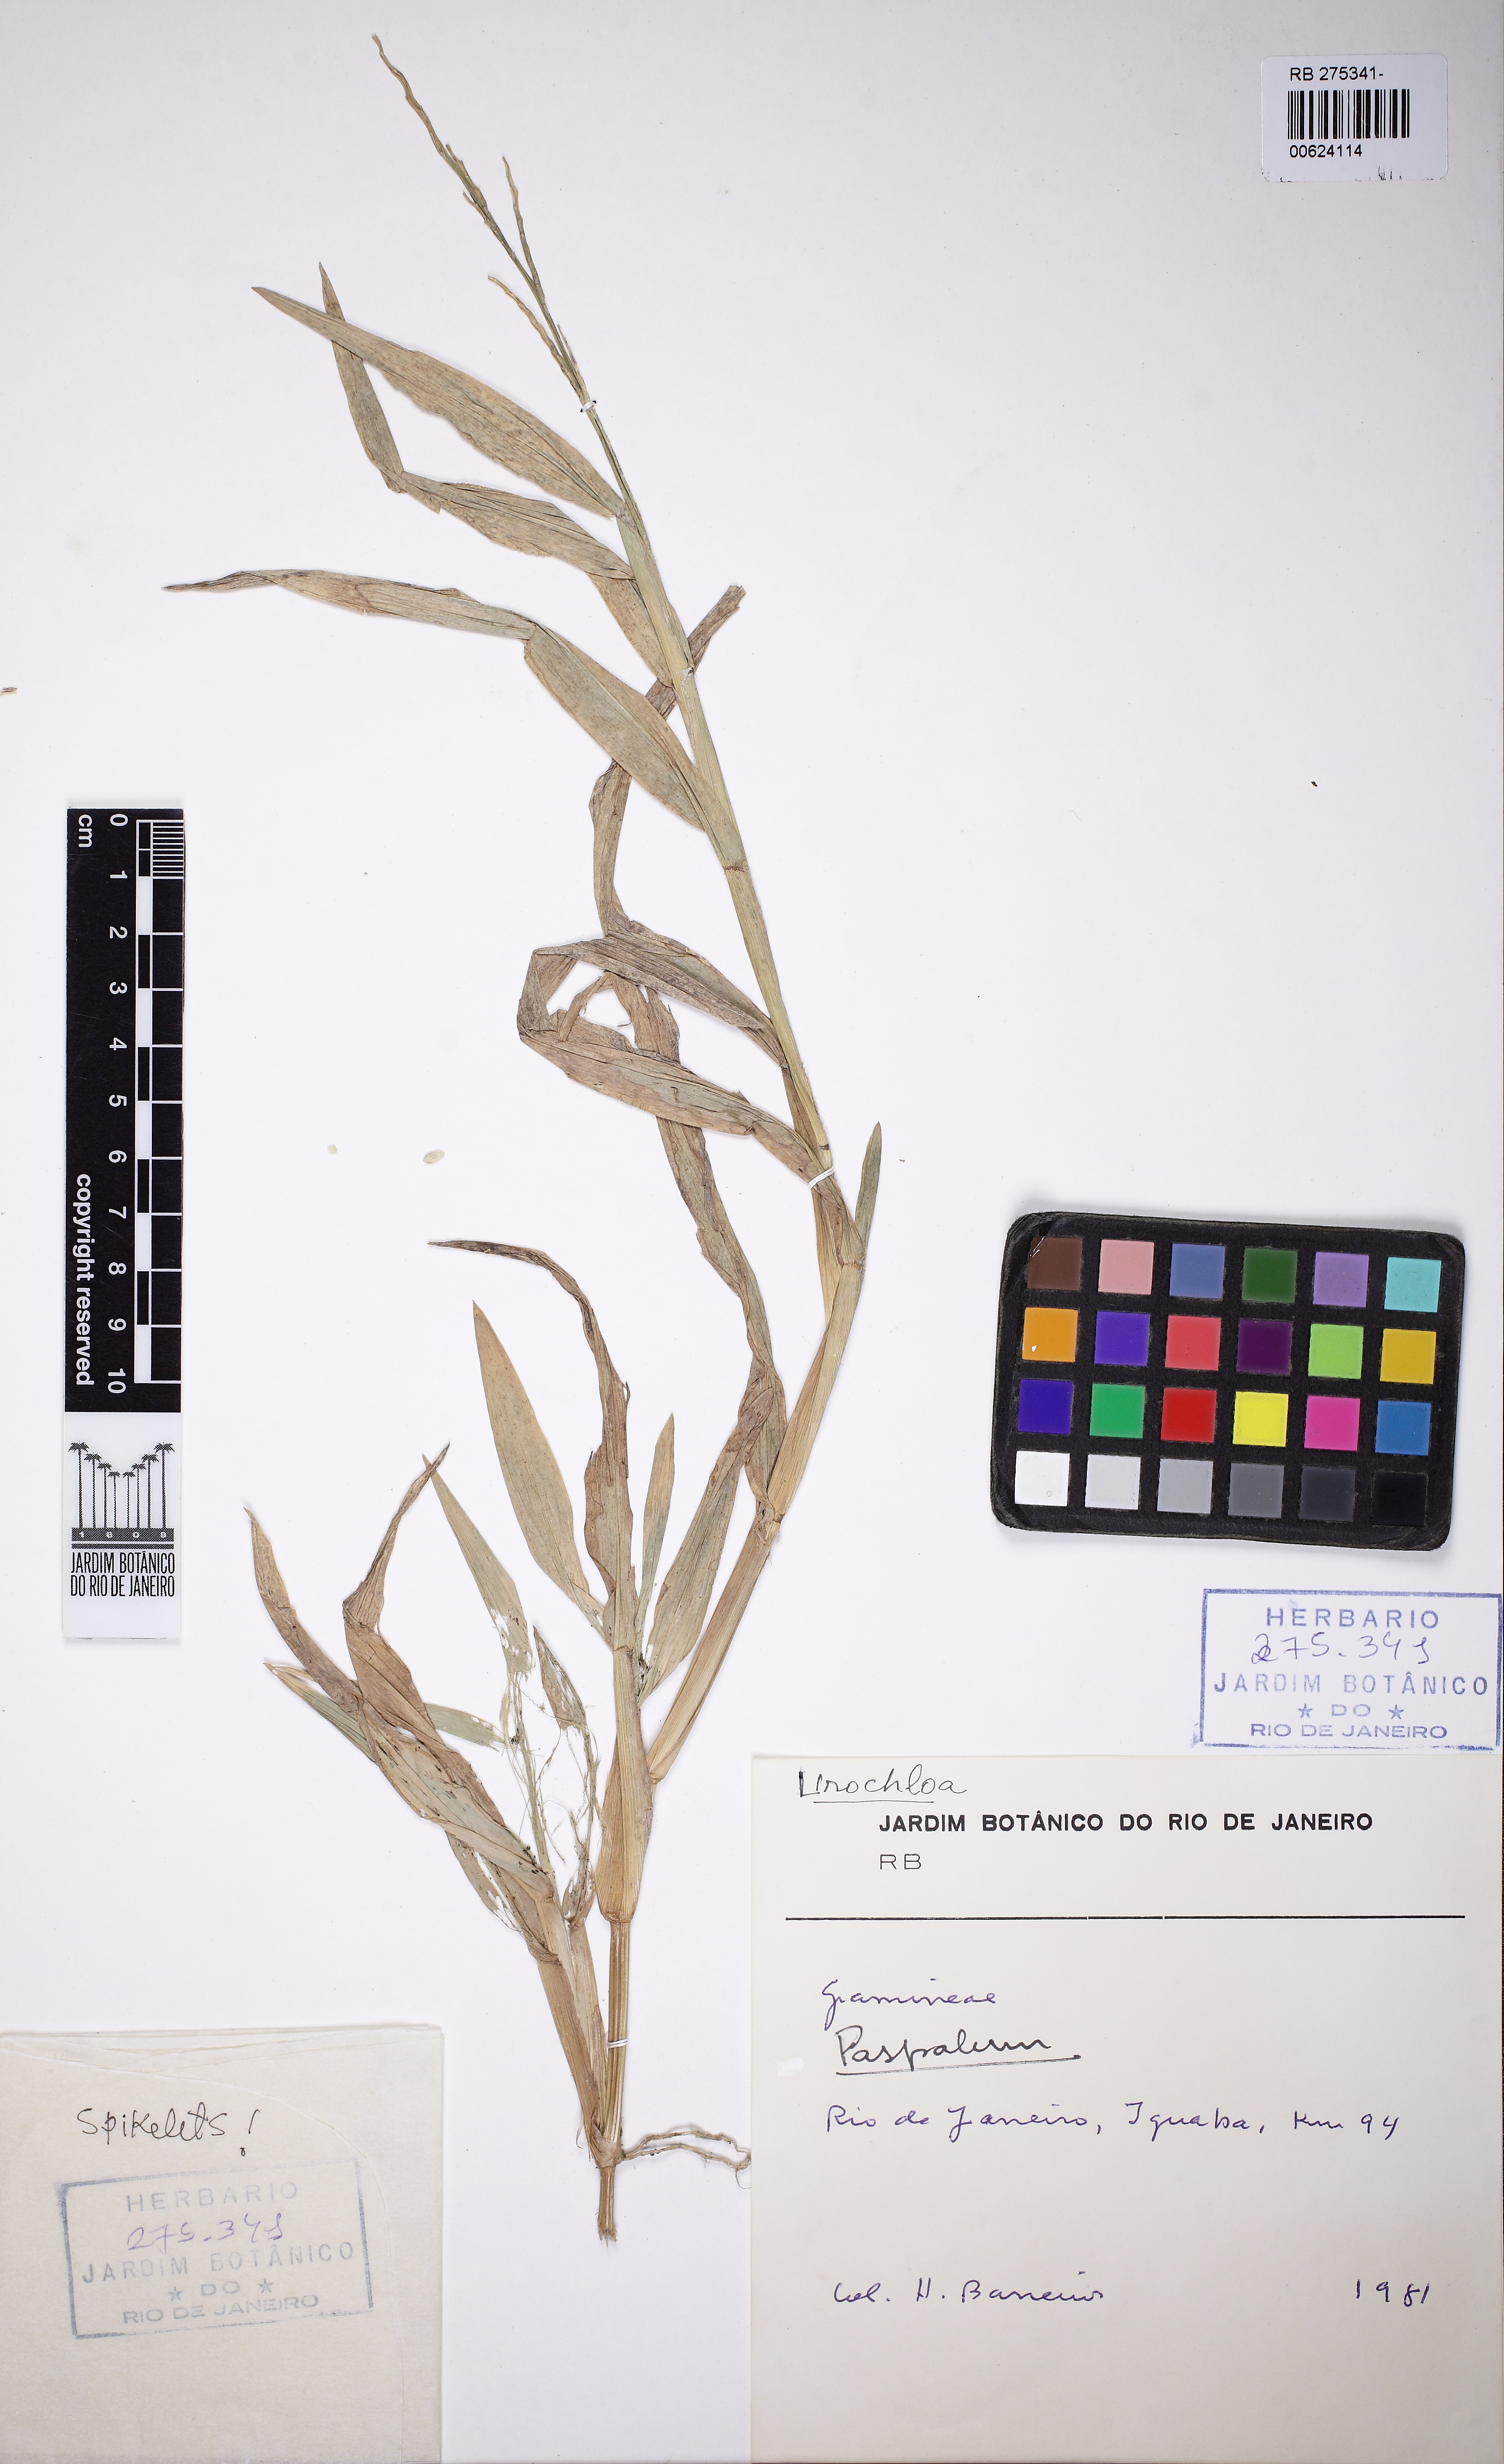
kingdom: Plantae
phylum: Tracheophyta
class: Liliopsida
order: Poales
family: Poaceae
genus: Urochloa
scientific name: Urochloa
